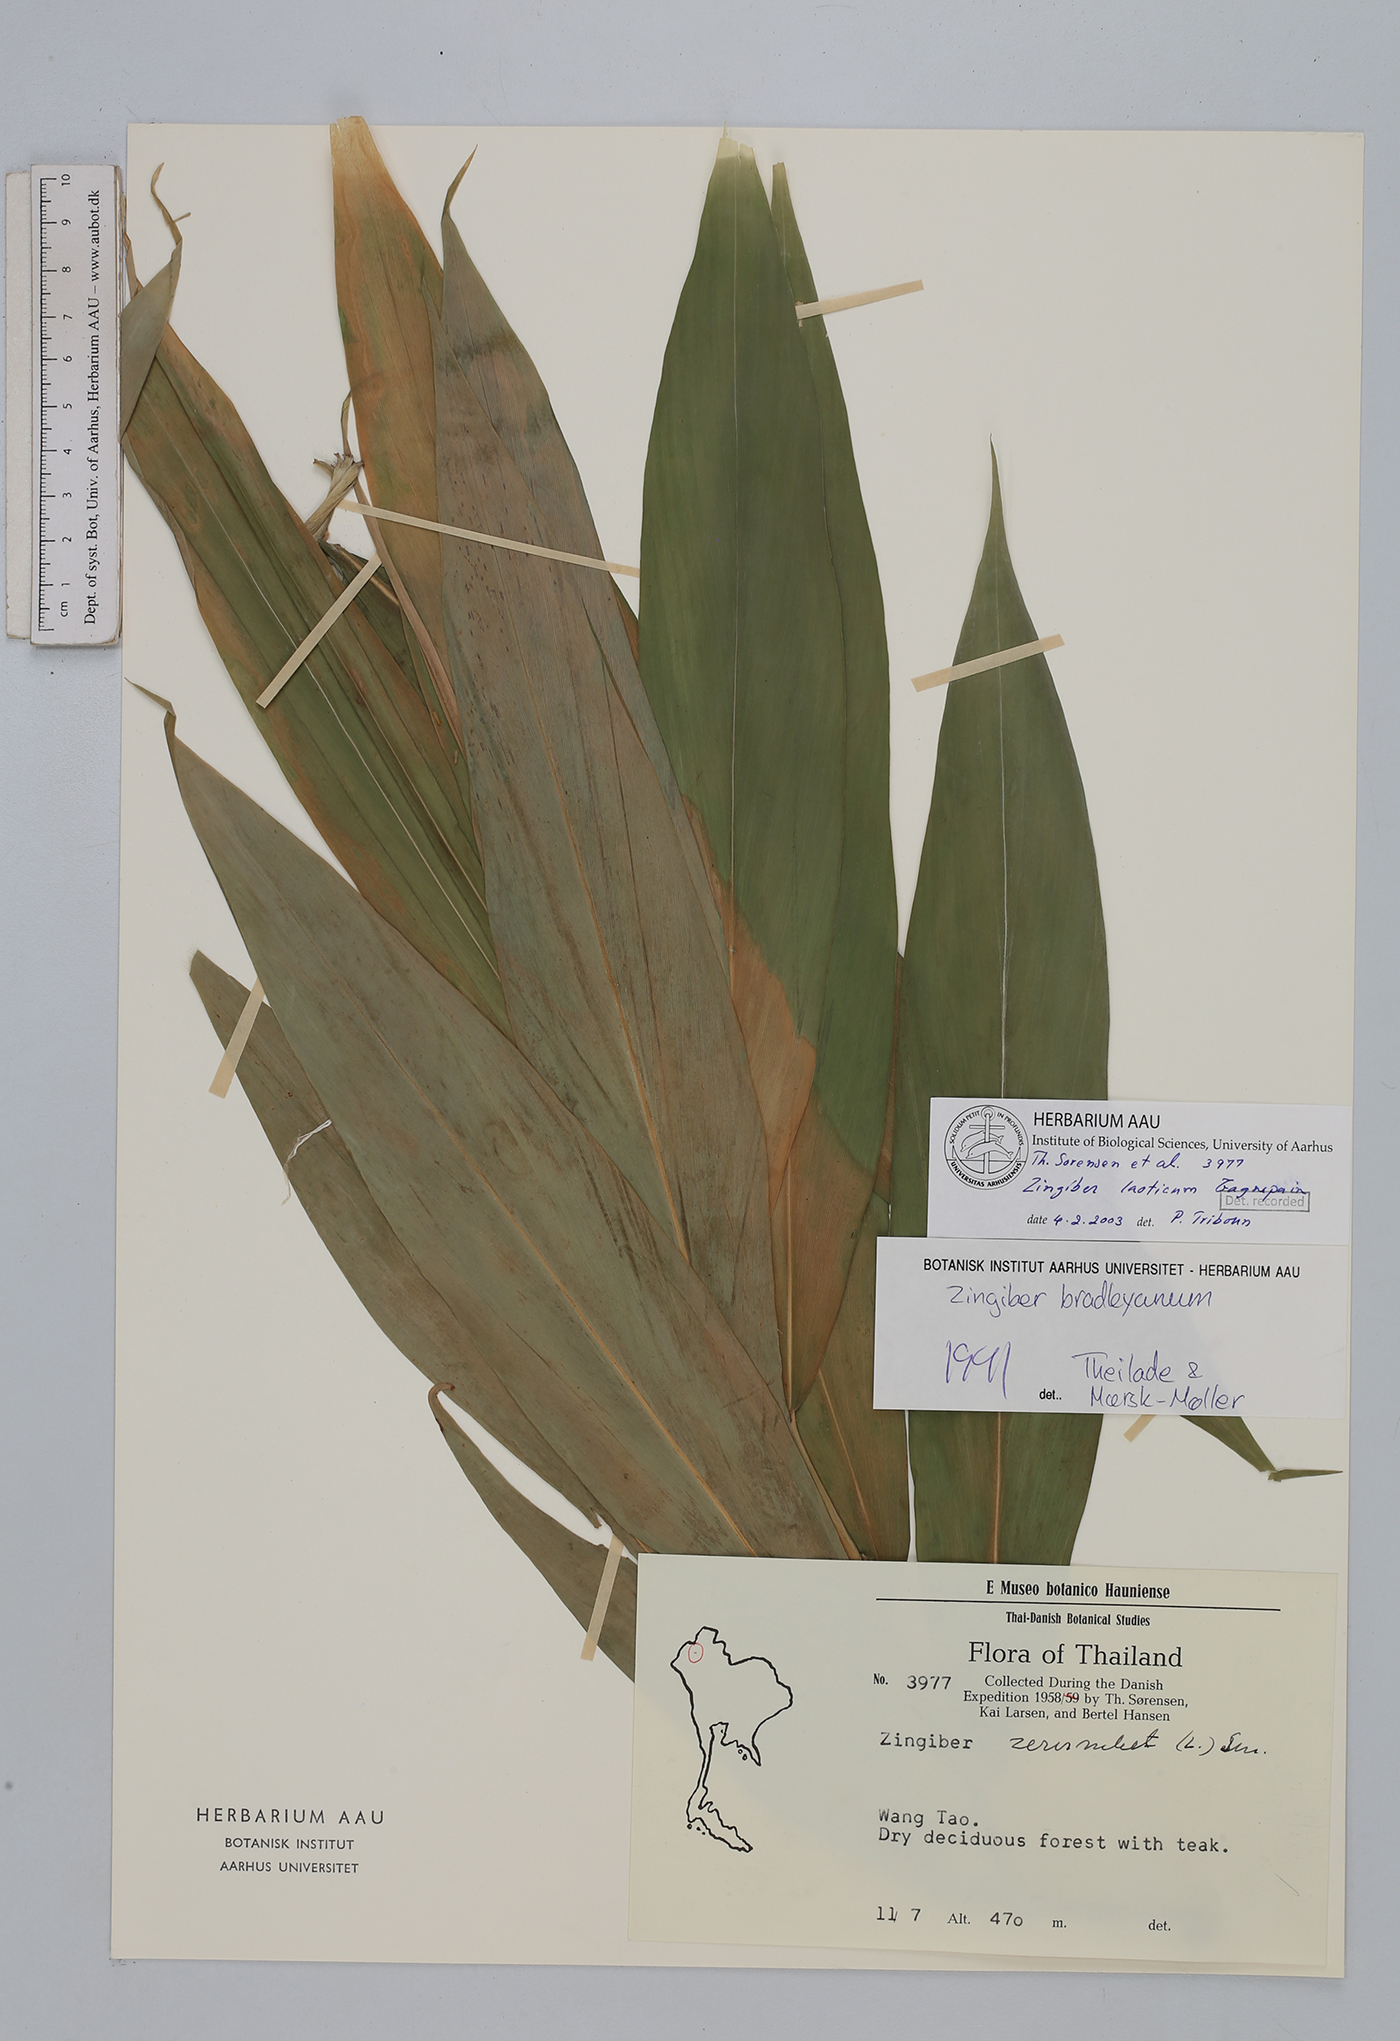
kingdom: Plantae
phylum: Tracheophyta
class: Liliopsida
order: Zingiberales
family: Zingiberaceae
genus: Zingiber
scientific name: Zingiber laoticum
